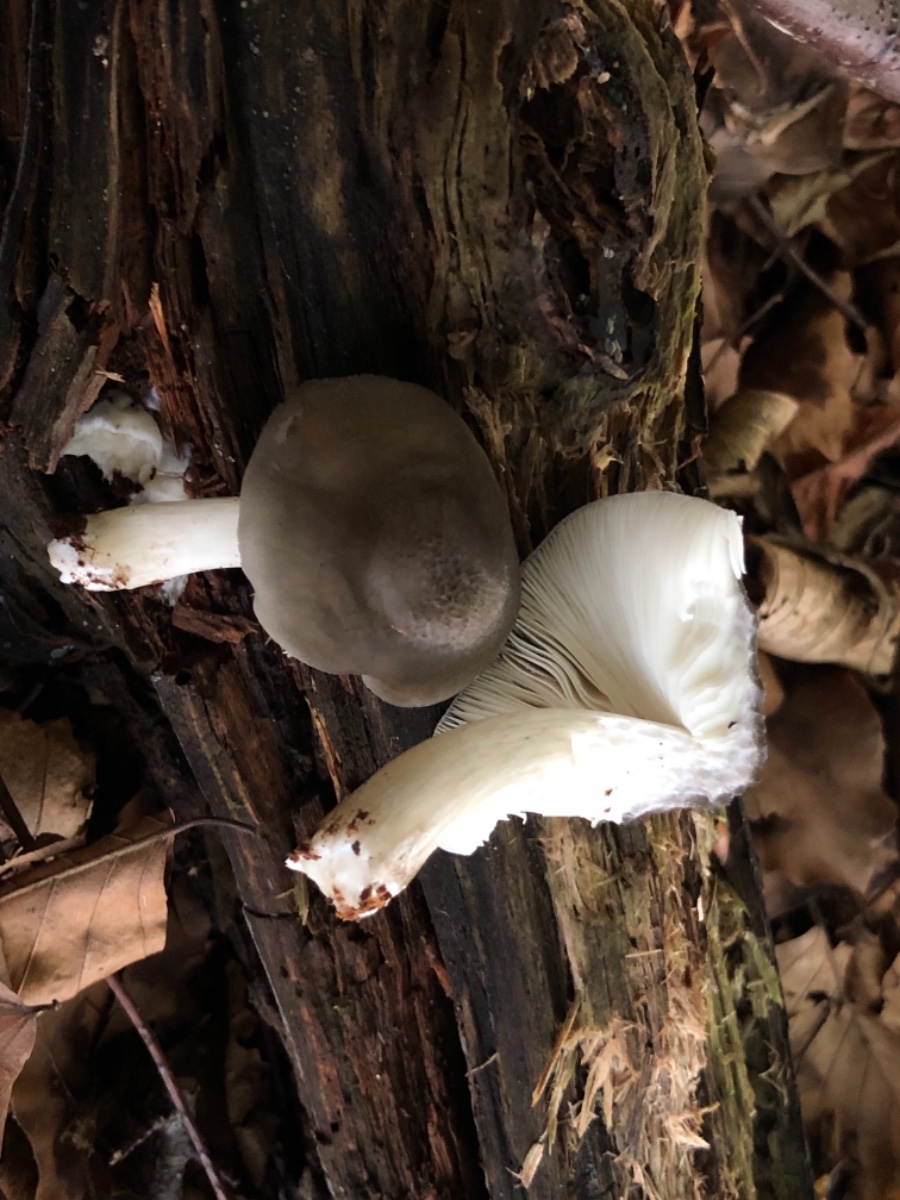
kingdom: Fungi
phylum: Basidiomycota
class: Agaricomycetes
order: Agaricales
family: Pluteaceae
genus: Pluteus
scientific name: Pluteus cervinus
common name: sodfarvet skærmhat
